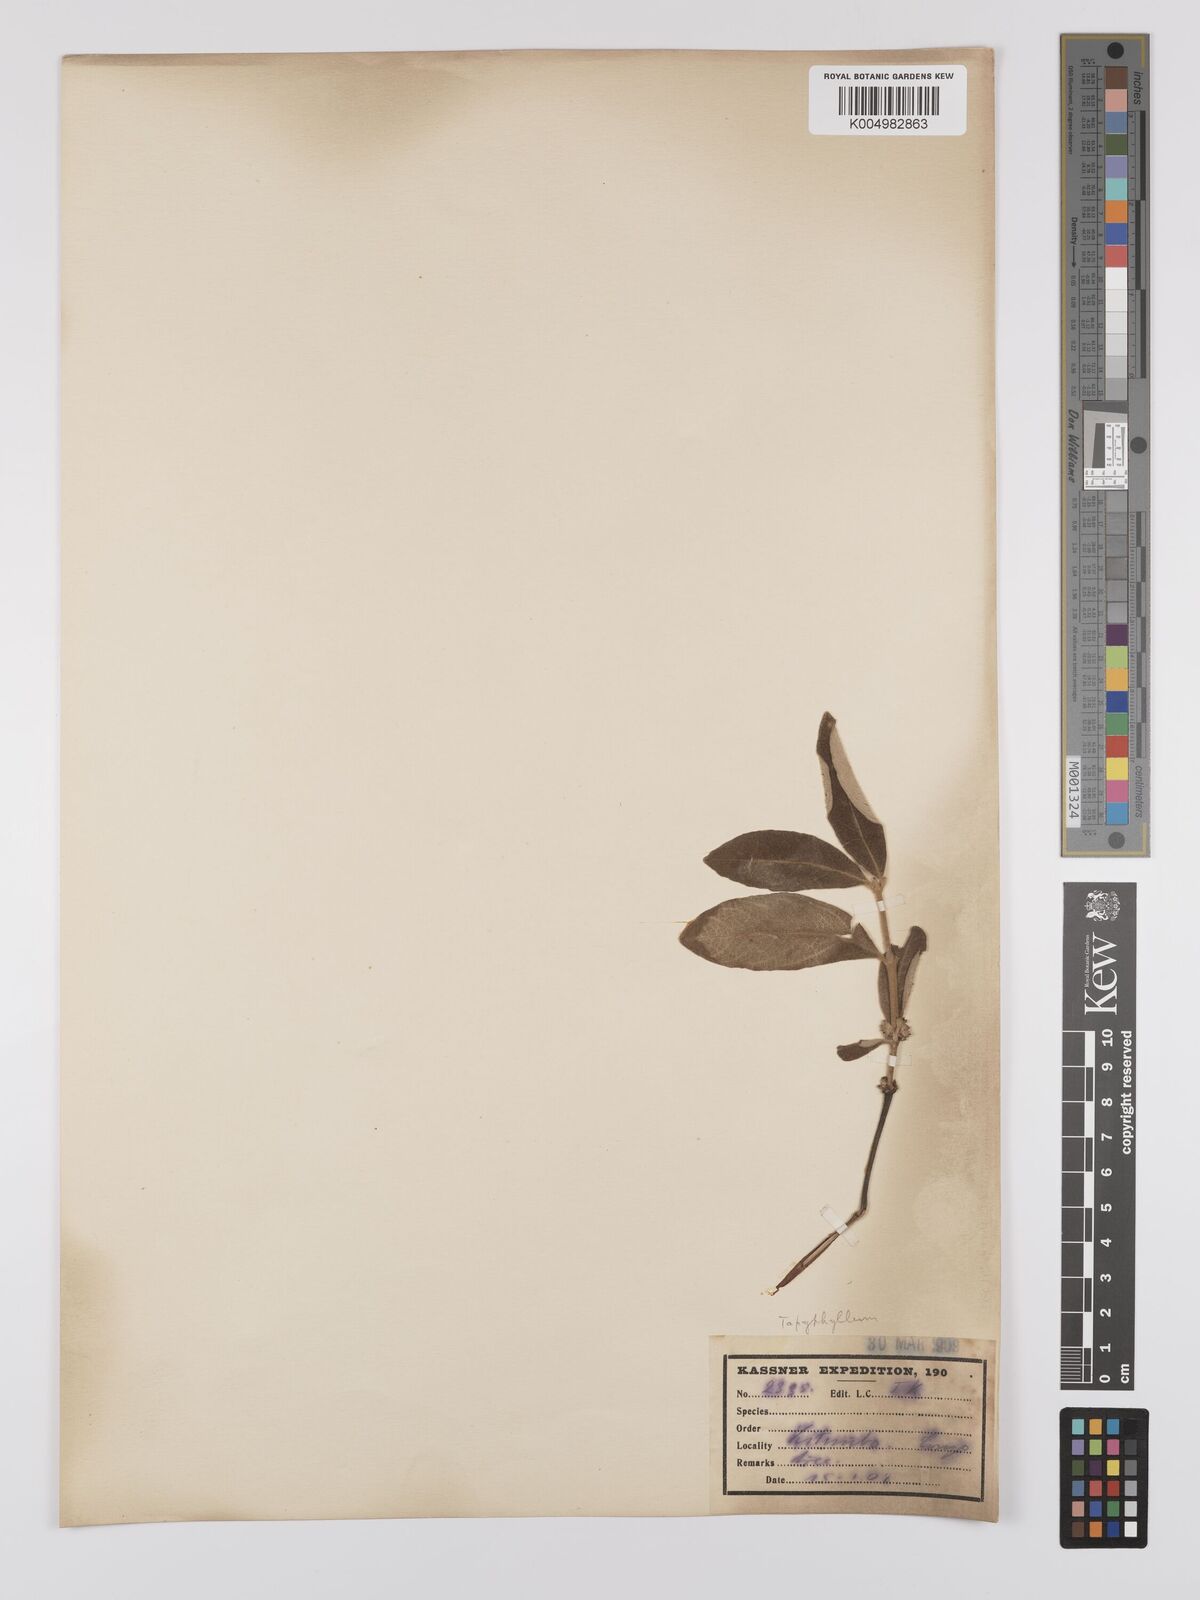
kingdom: Plantae
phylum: Tracheophyta
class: Magnoliopsida
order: Gentianales
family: Rubiaceae
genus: Fadogiella
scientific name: Fadogiella stigmatoloba
